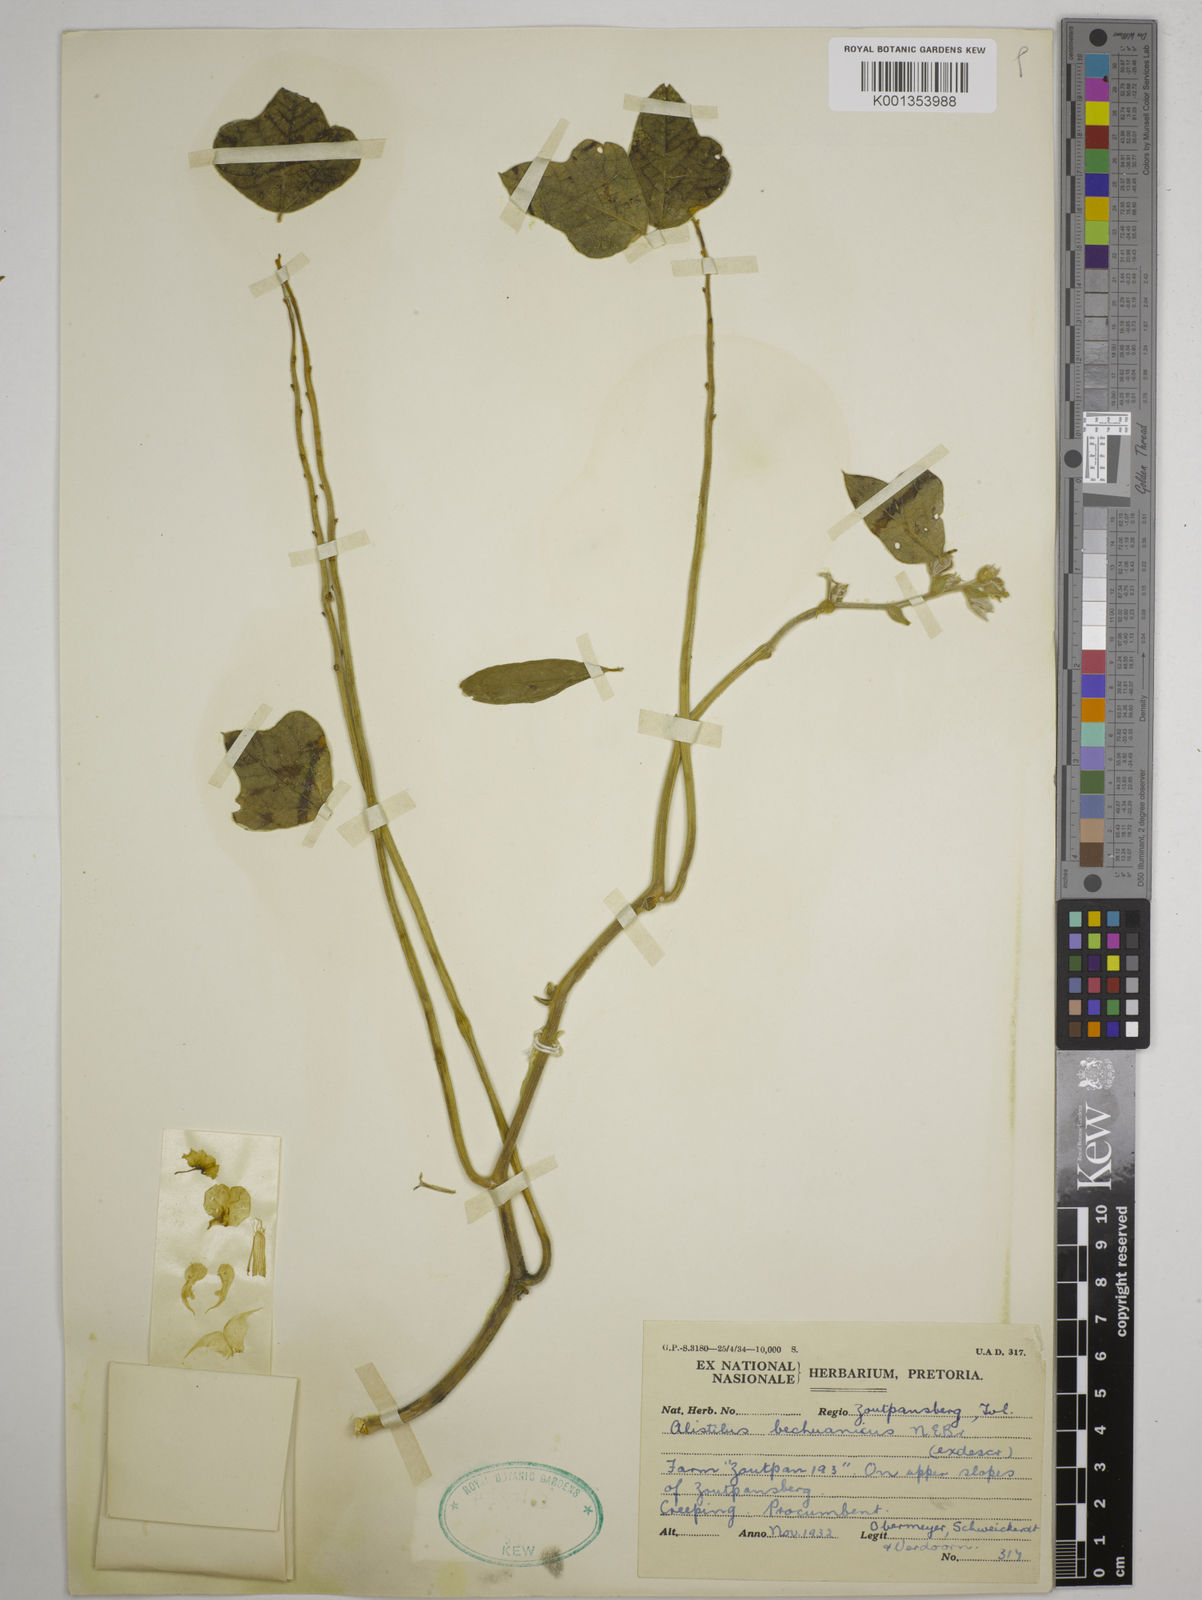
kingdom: Plantae
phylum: Tracheophyta
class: Magnoliopsida
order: Fabales
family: Fabaceae
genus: Alistilus
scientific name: Alistilus bechuanicus
